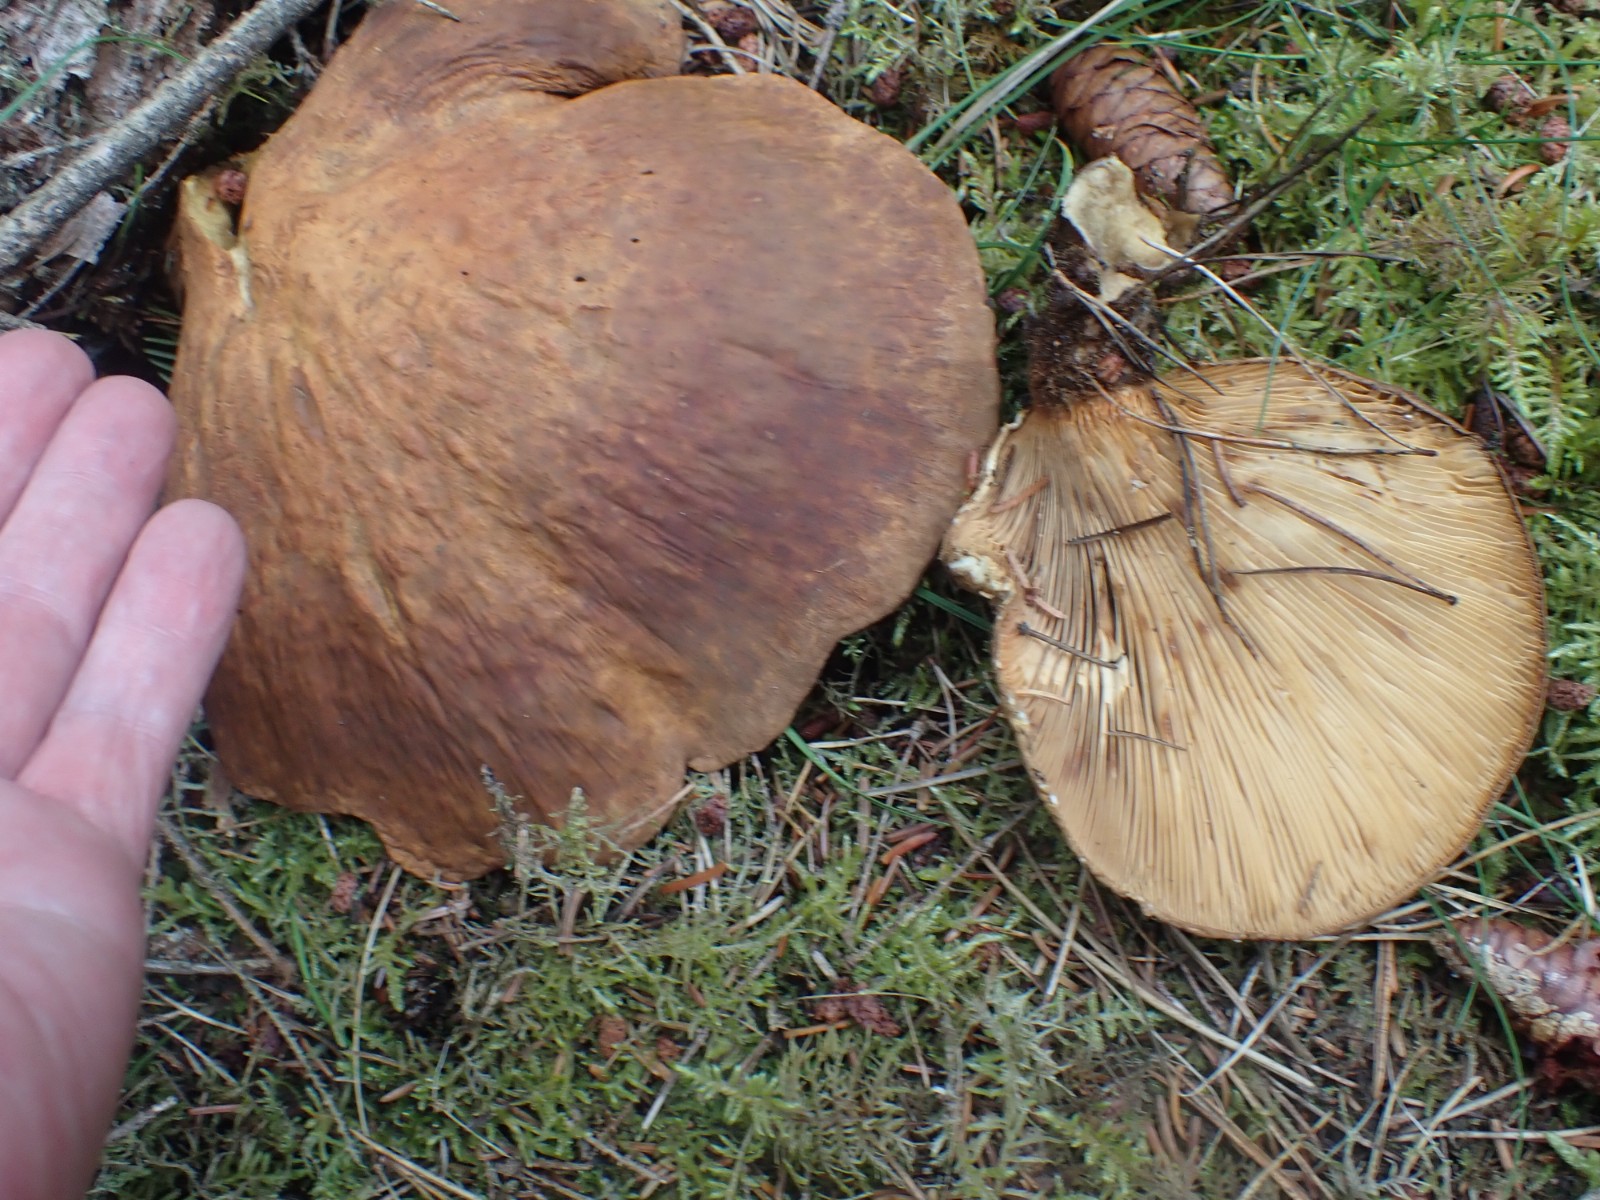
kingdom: Fungi
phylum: Basidiomycota
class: Agaricomycetes
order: Boletales
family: Tapinellaceae
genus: Tapinella
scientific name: Tapinella atrotomentosa
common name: sortfiltet viftesvamp
